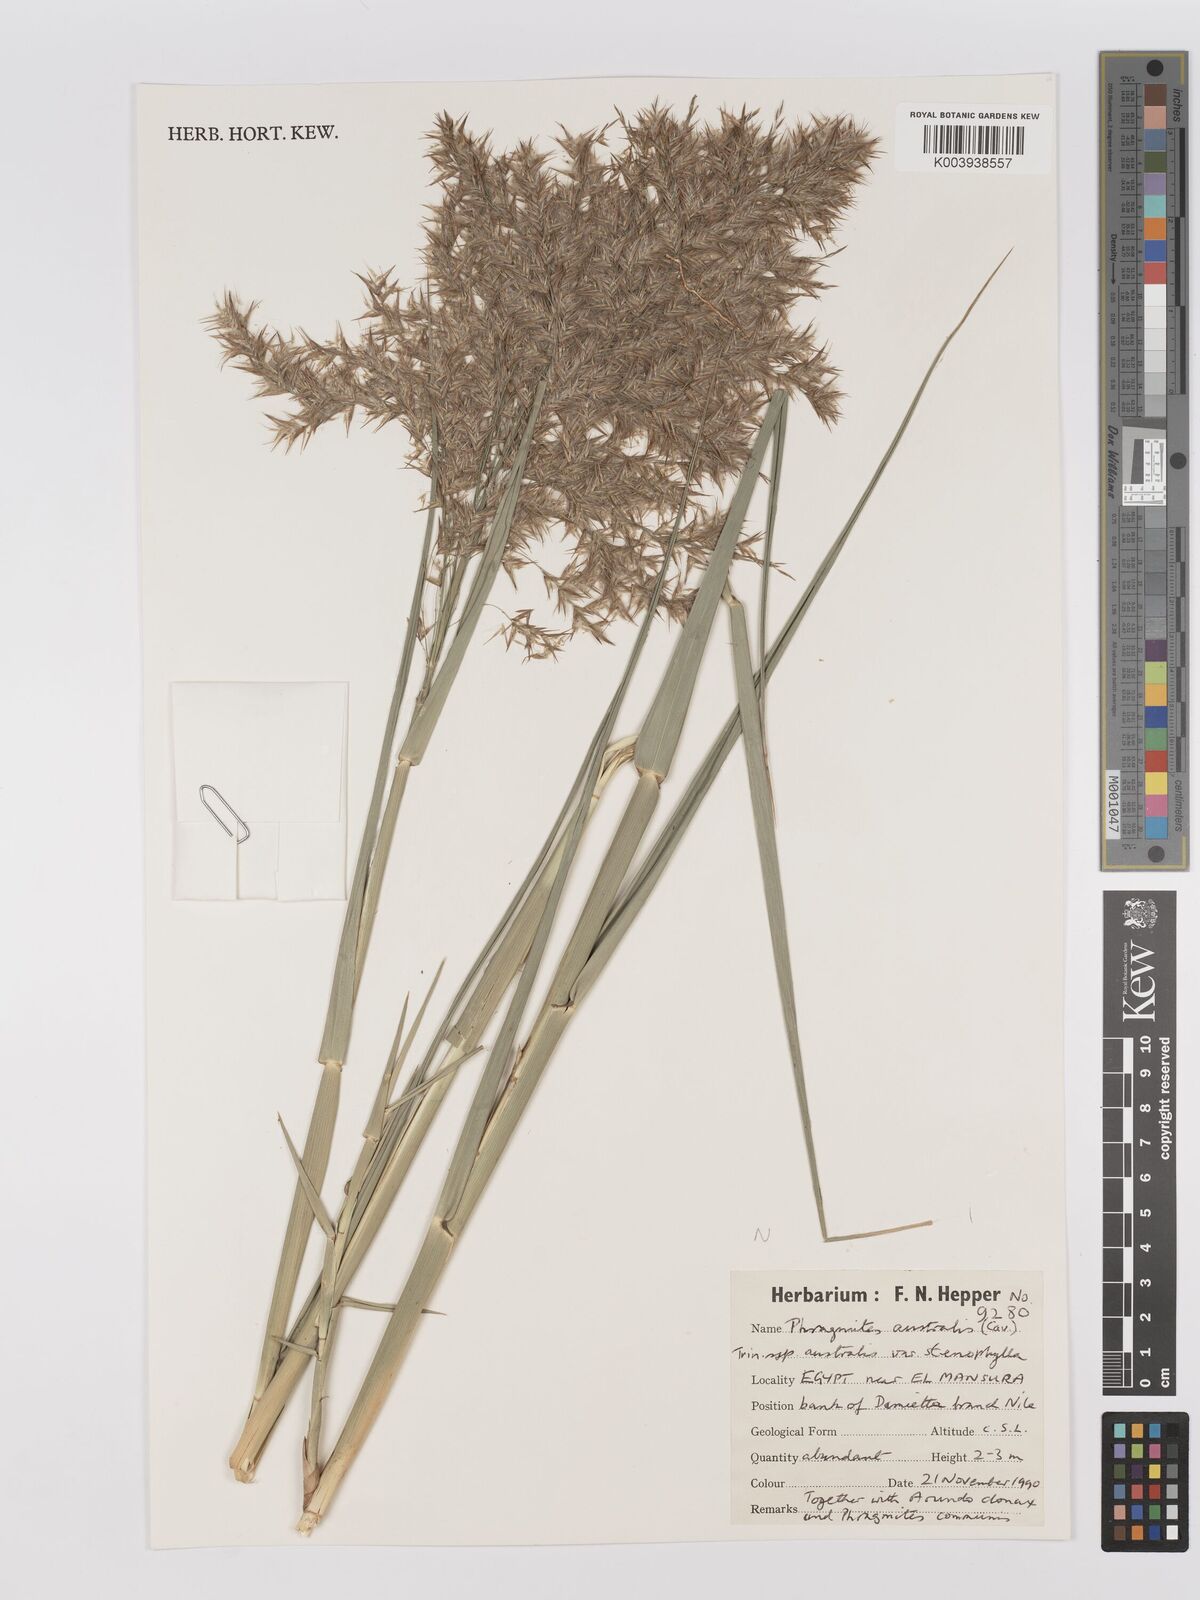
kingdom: Plantae
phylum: Tracheophyta
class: Liliopsida
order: Poales
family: Poaceae
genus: Phragmites
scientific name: Phragmites australis
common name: Common reed
